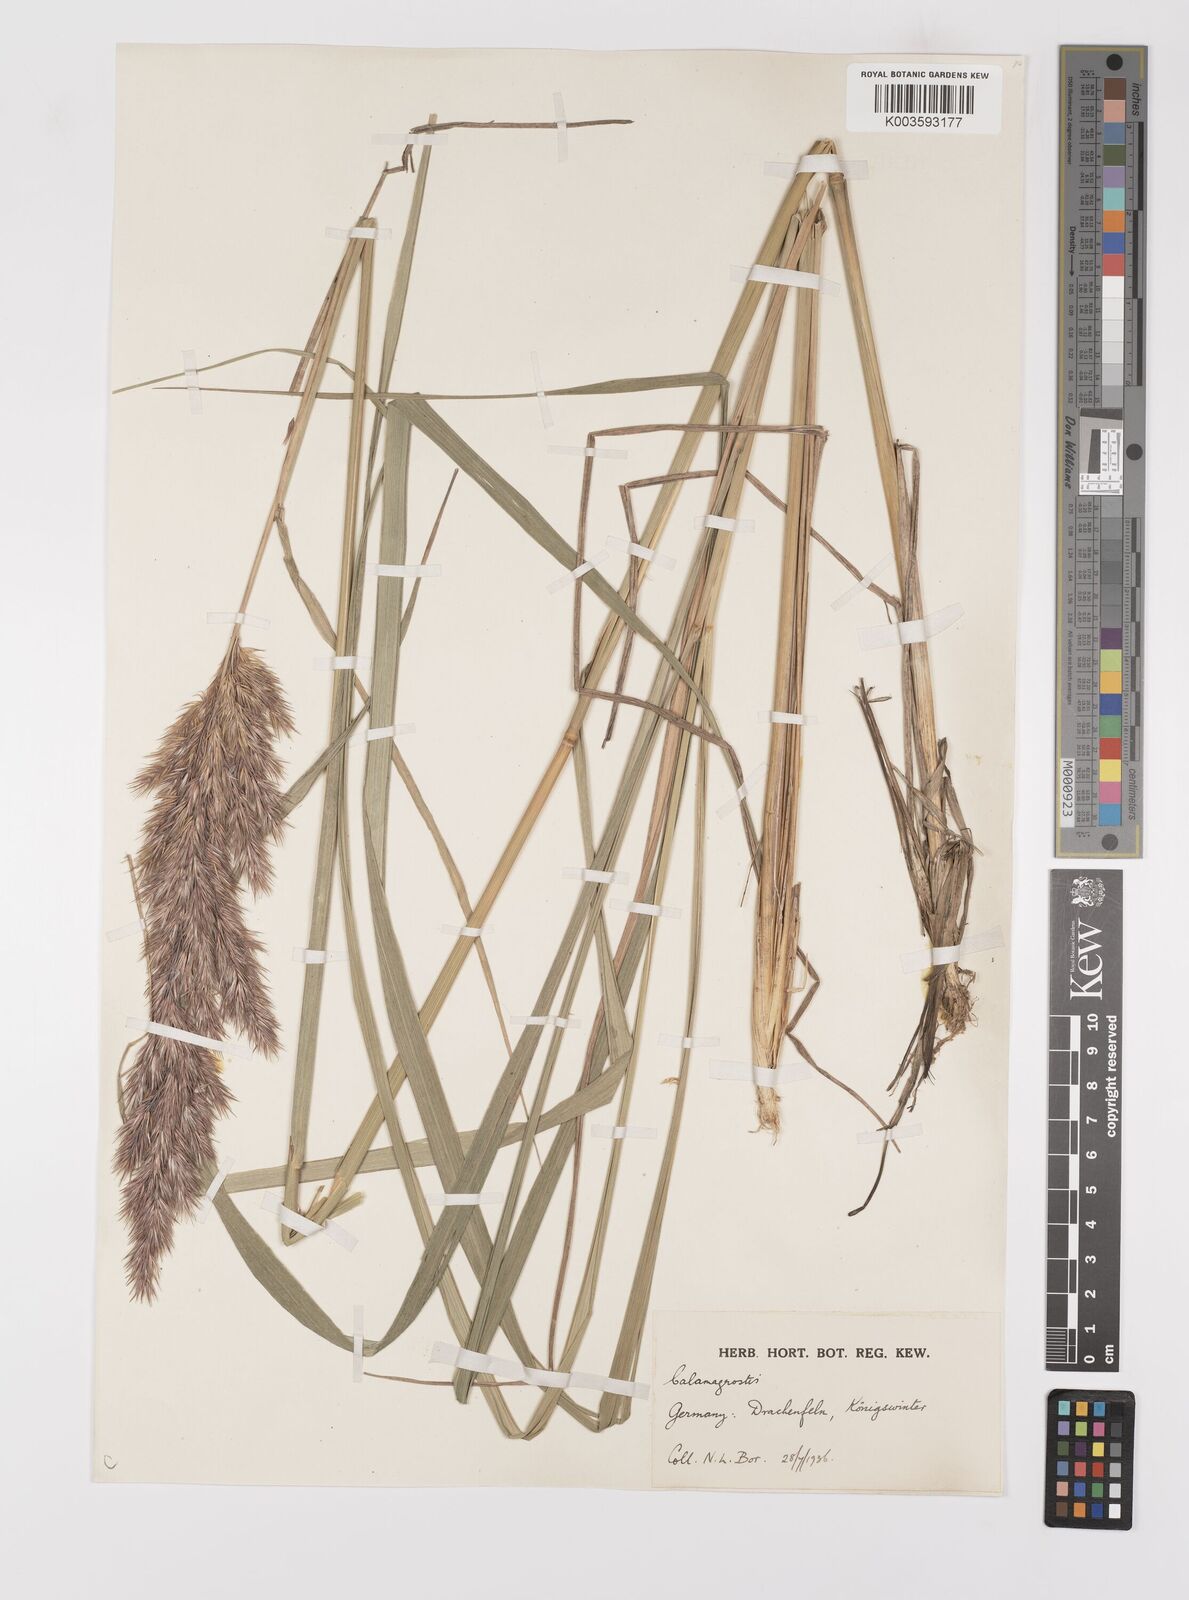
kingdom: Plantae
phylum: Tracheophyta
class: Liliopsida
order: Poales
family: Poaceae
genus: Calamagrostis
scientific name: Calamagrostis
